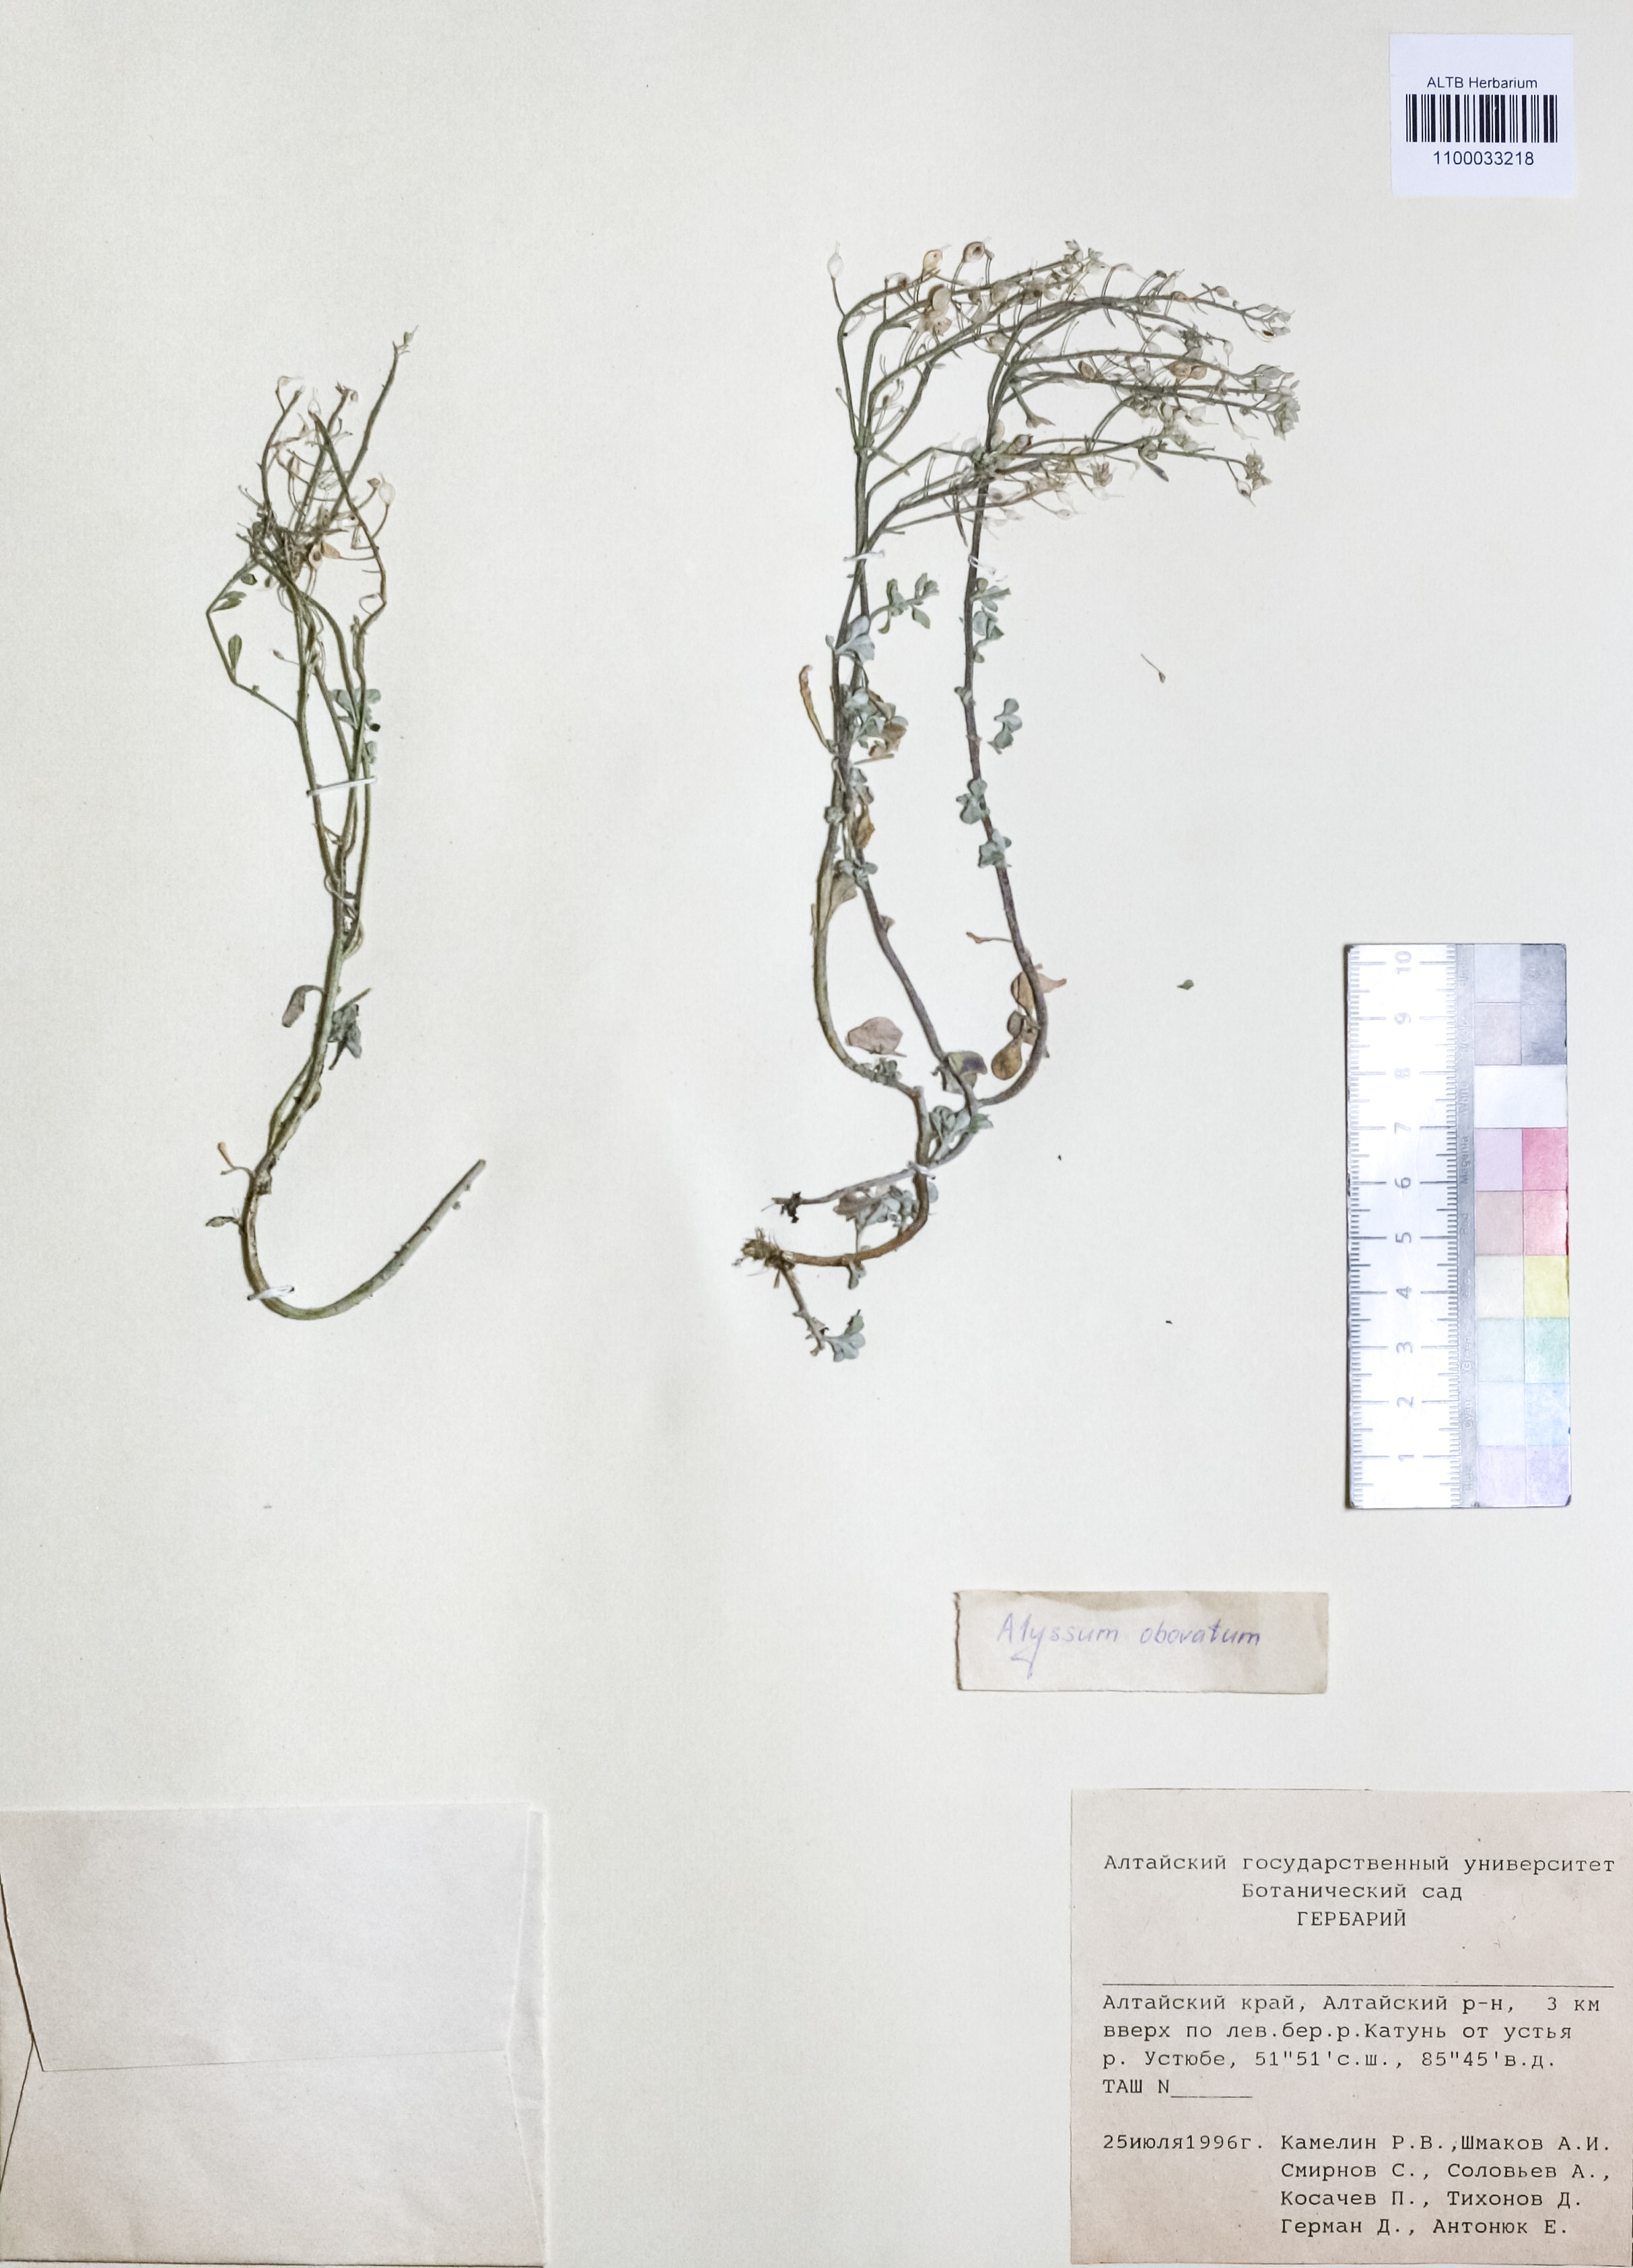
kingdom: Plantae
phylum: Tracheophyta
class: Magnoliopsida
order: Brassicales
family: Brassicaceae
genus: Odontarrhena
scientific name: Odontarrhena obovata
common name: American alyssum
